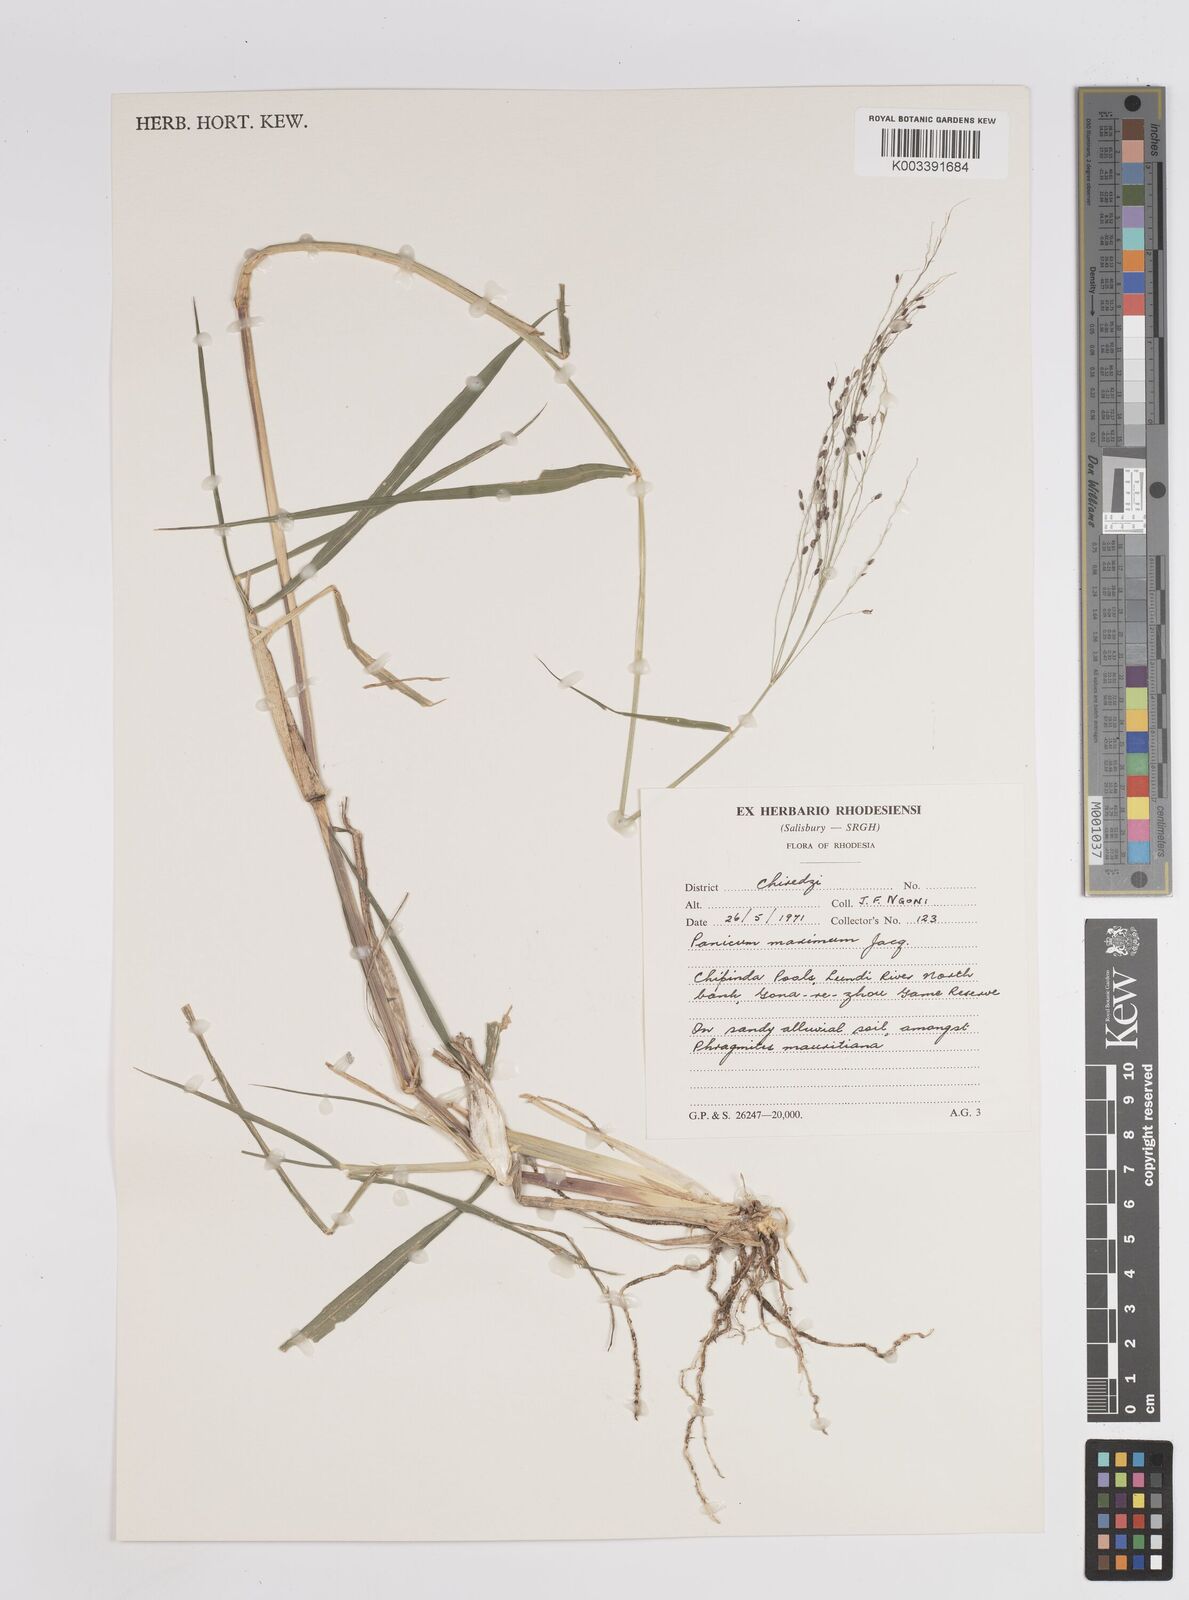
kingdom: Plantae
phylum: Tracheophyta
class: Liliopsida
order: Poales
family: Poaceae
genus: Megathyrsus
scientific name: Megathyrsus maximus
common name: Guineagrass
